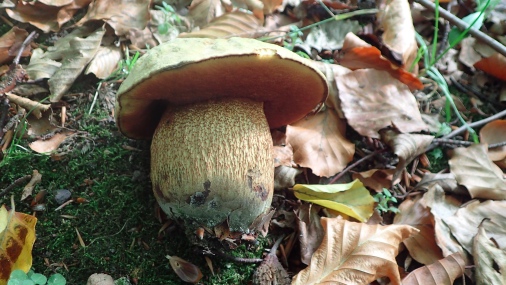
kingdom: Fungi
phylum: Basidiomycota
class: Agaricomycetes
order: Boletales
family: Boletaceae
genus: Suillellus
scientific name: Suillellus luridus
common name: netstokket indigorørhat
